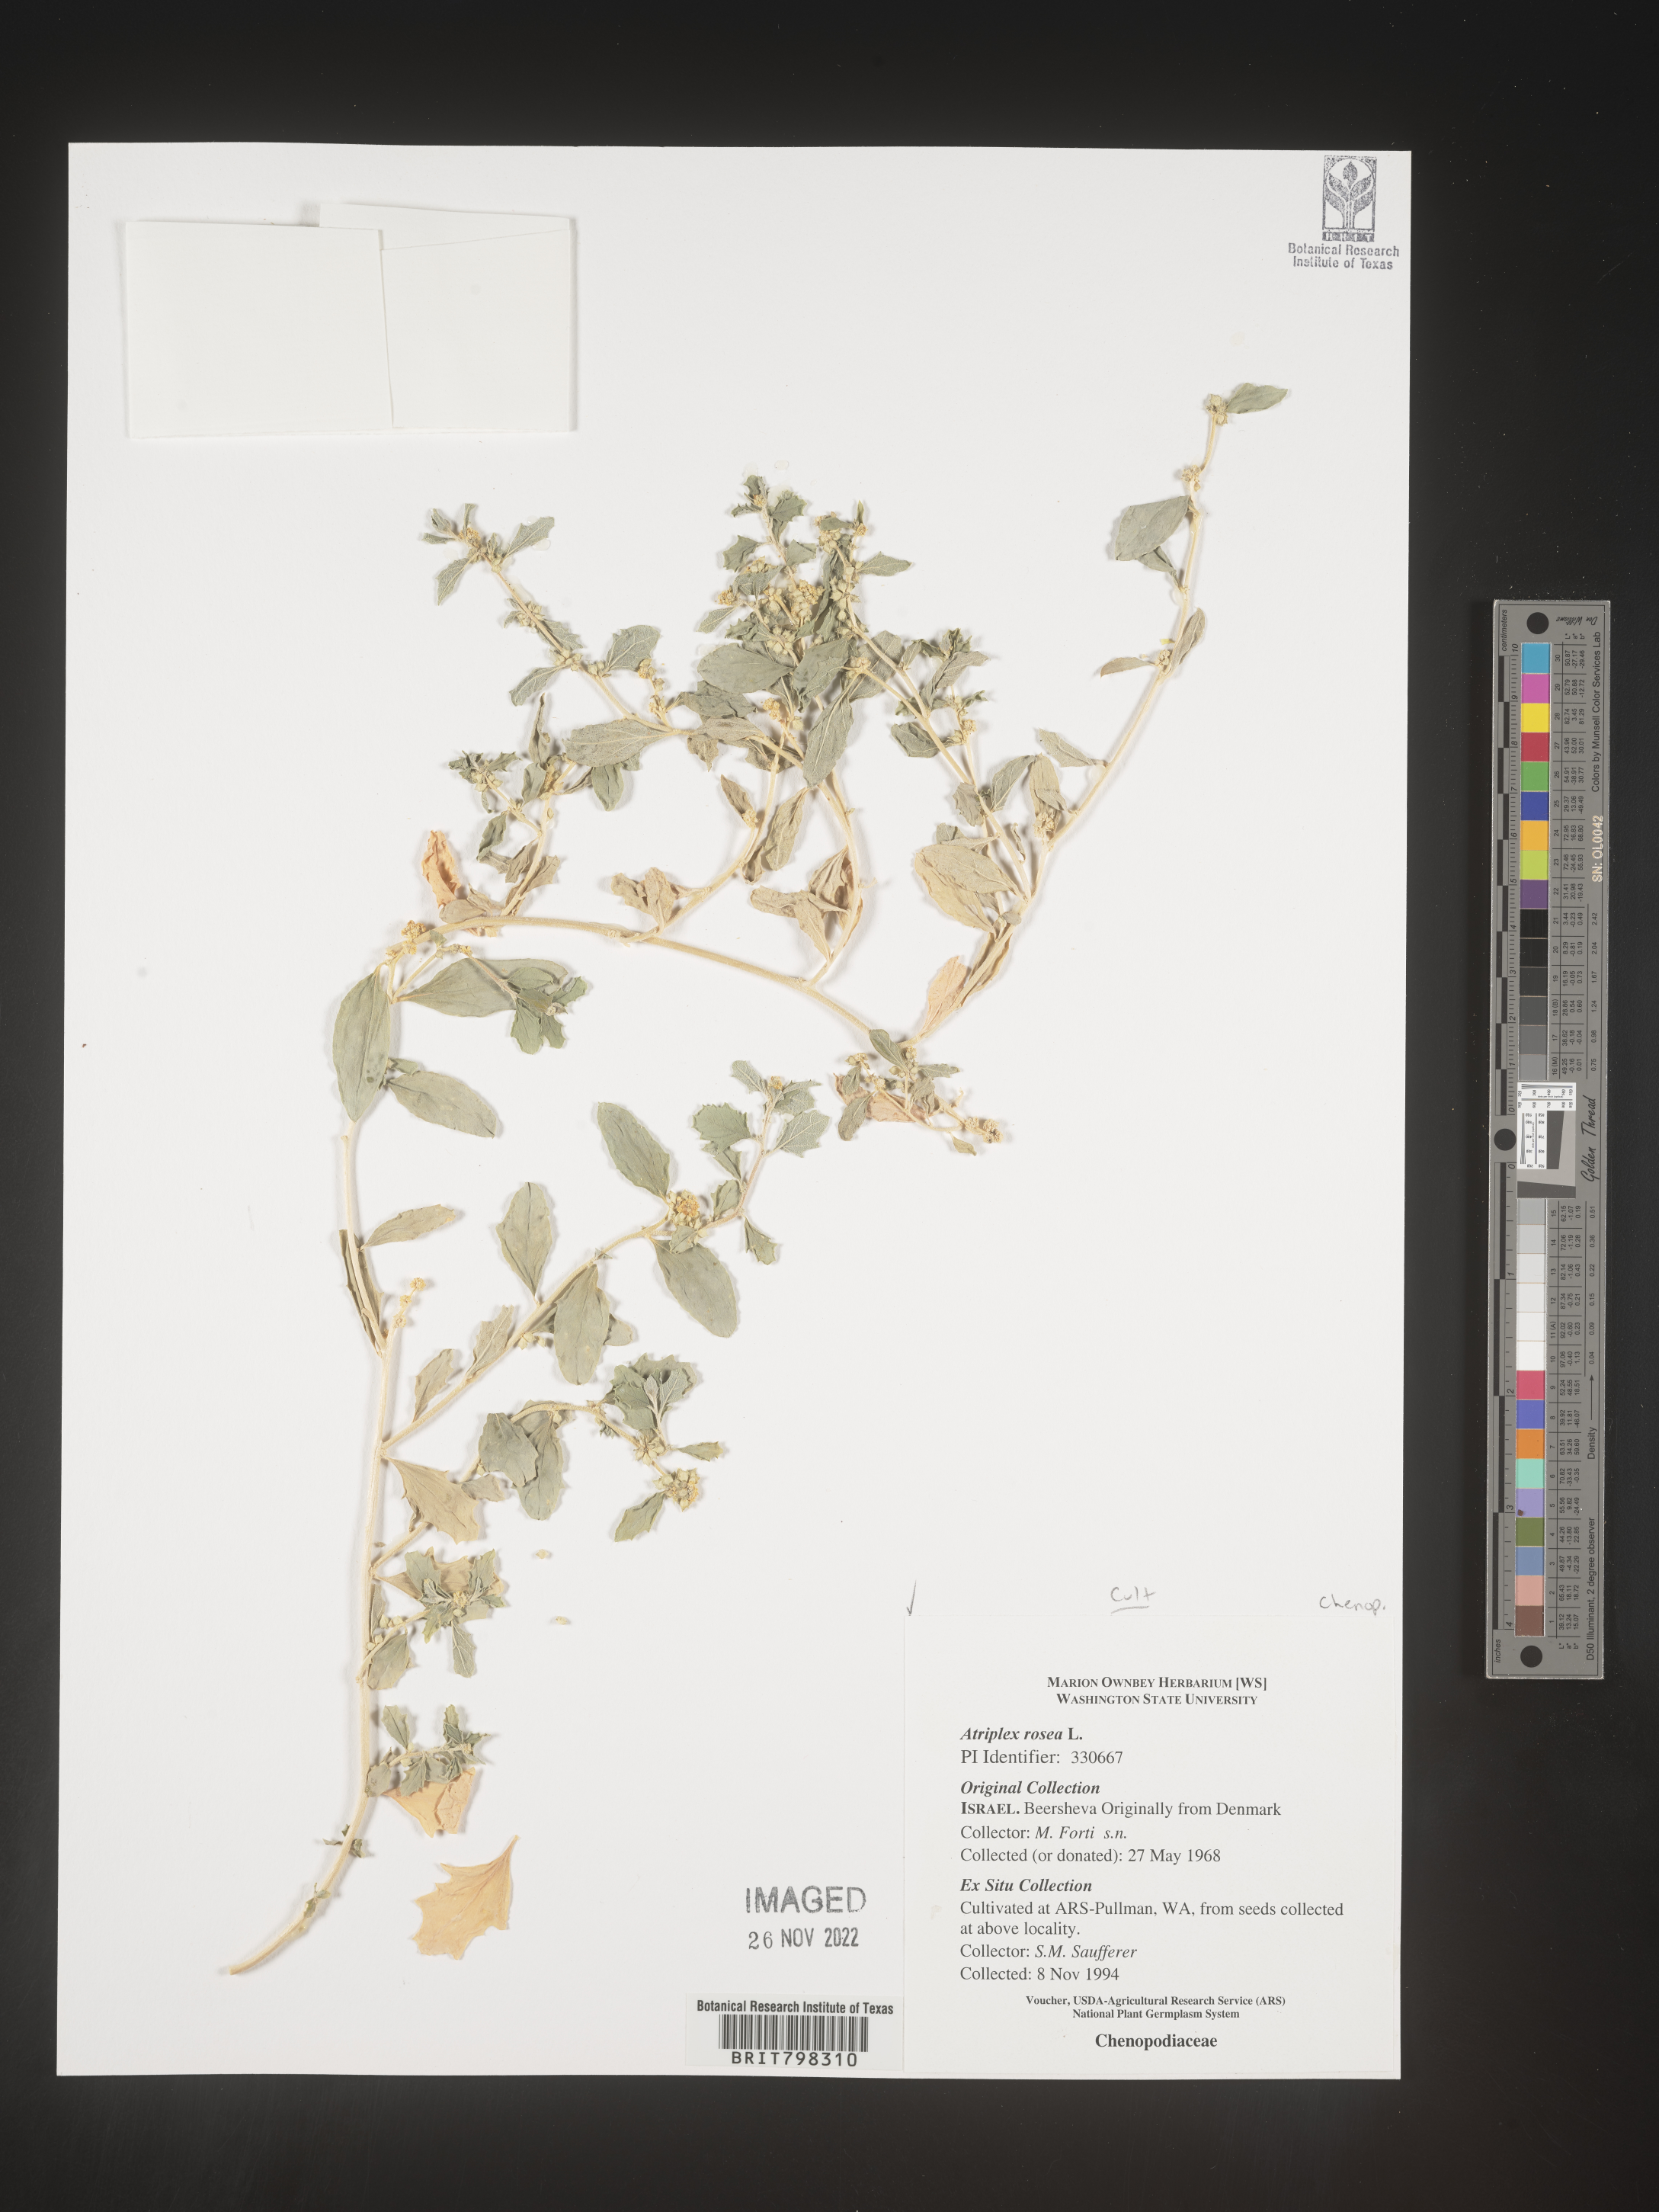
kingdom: Plantae
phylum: Tracheophyta
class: Magnoliopsida
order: Caryophyllales
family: Amaranthaceae
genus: Atriplex
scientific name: Atriplex
